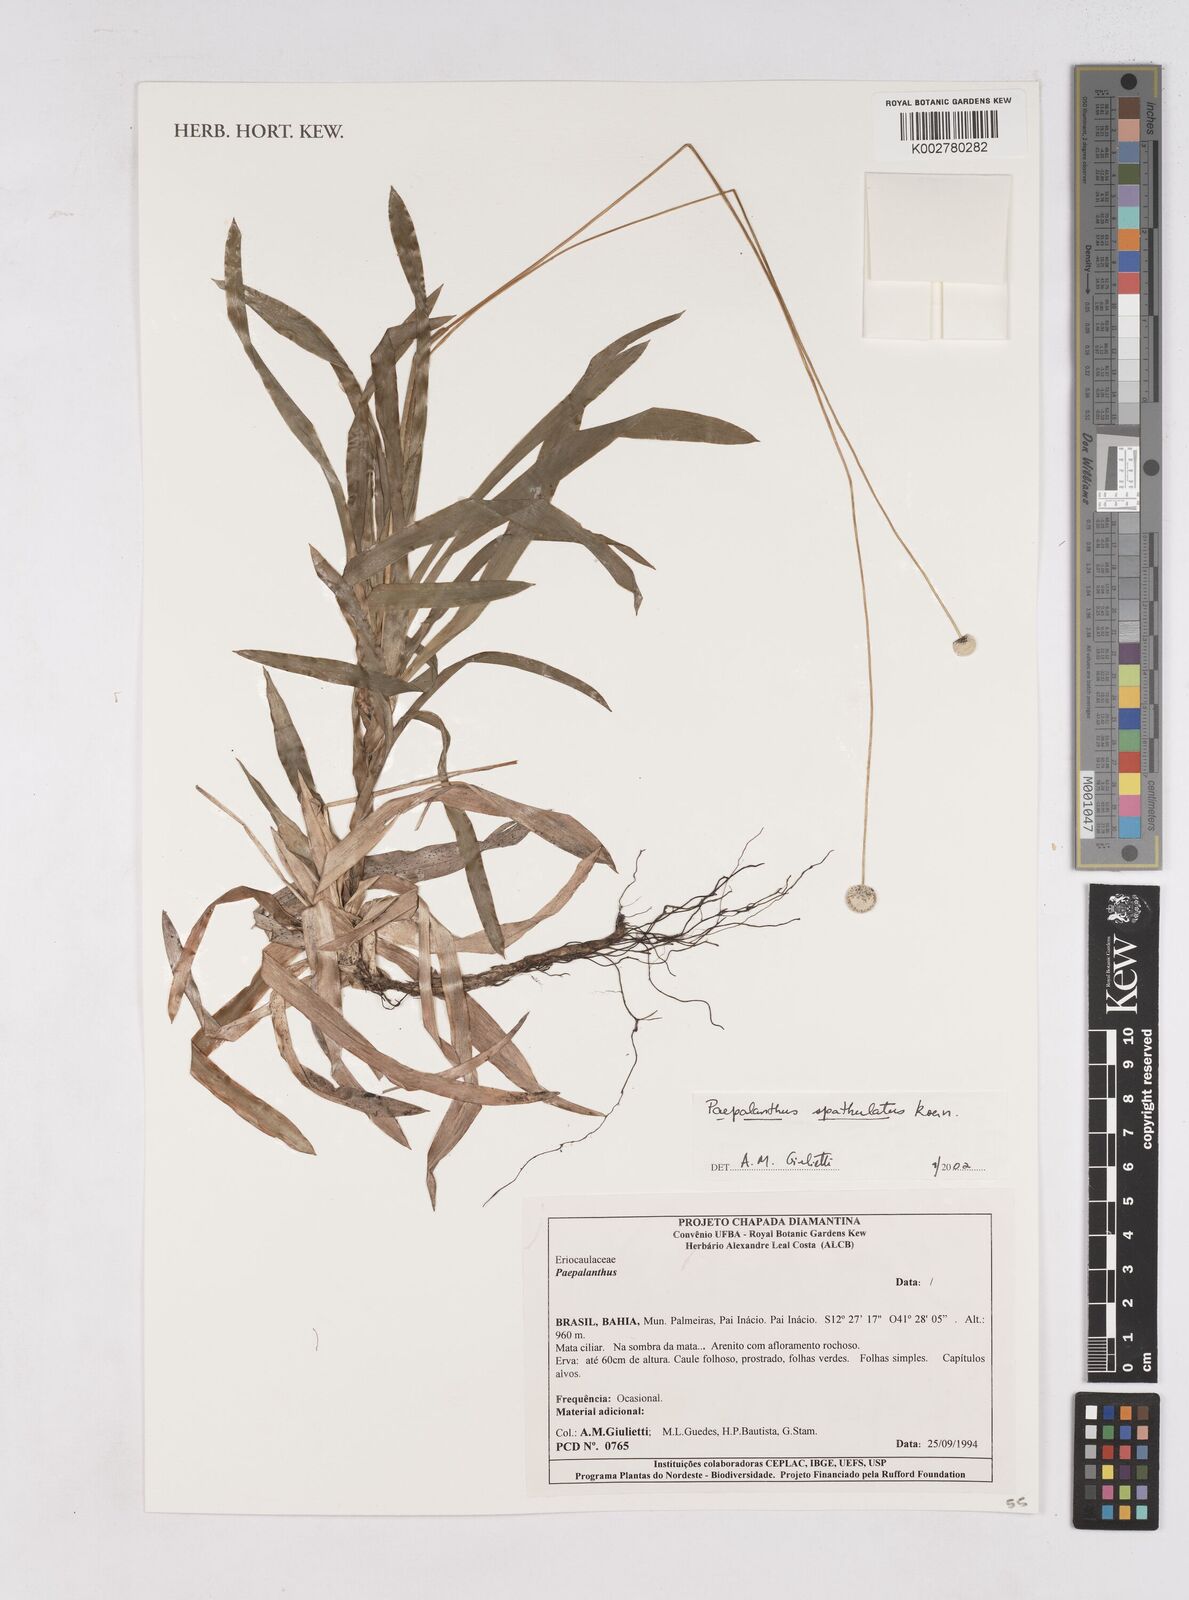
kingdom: Plantae
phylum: Tracheophyta
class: Liliopsida
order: Poales
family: Eriocaulaceae
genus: Paepalanthus
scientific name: Paepalanthus spathulatus
